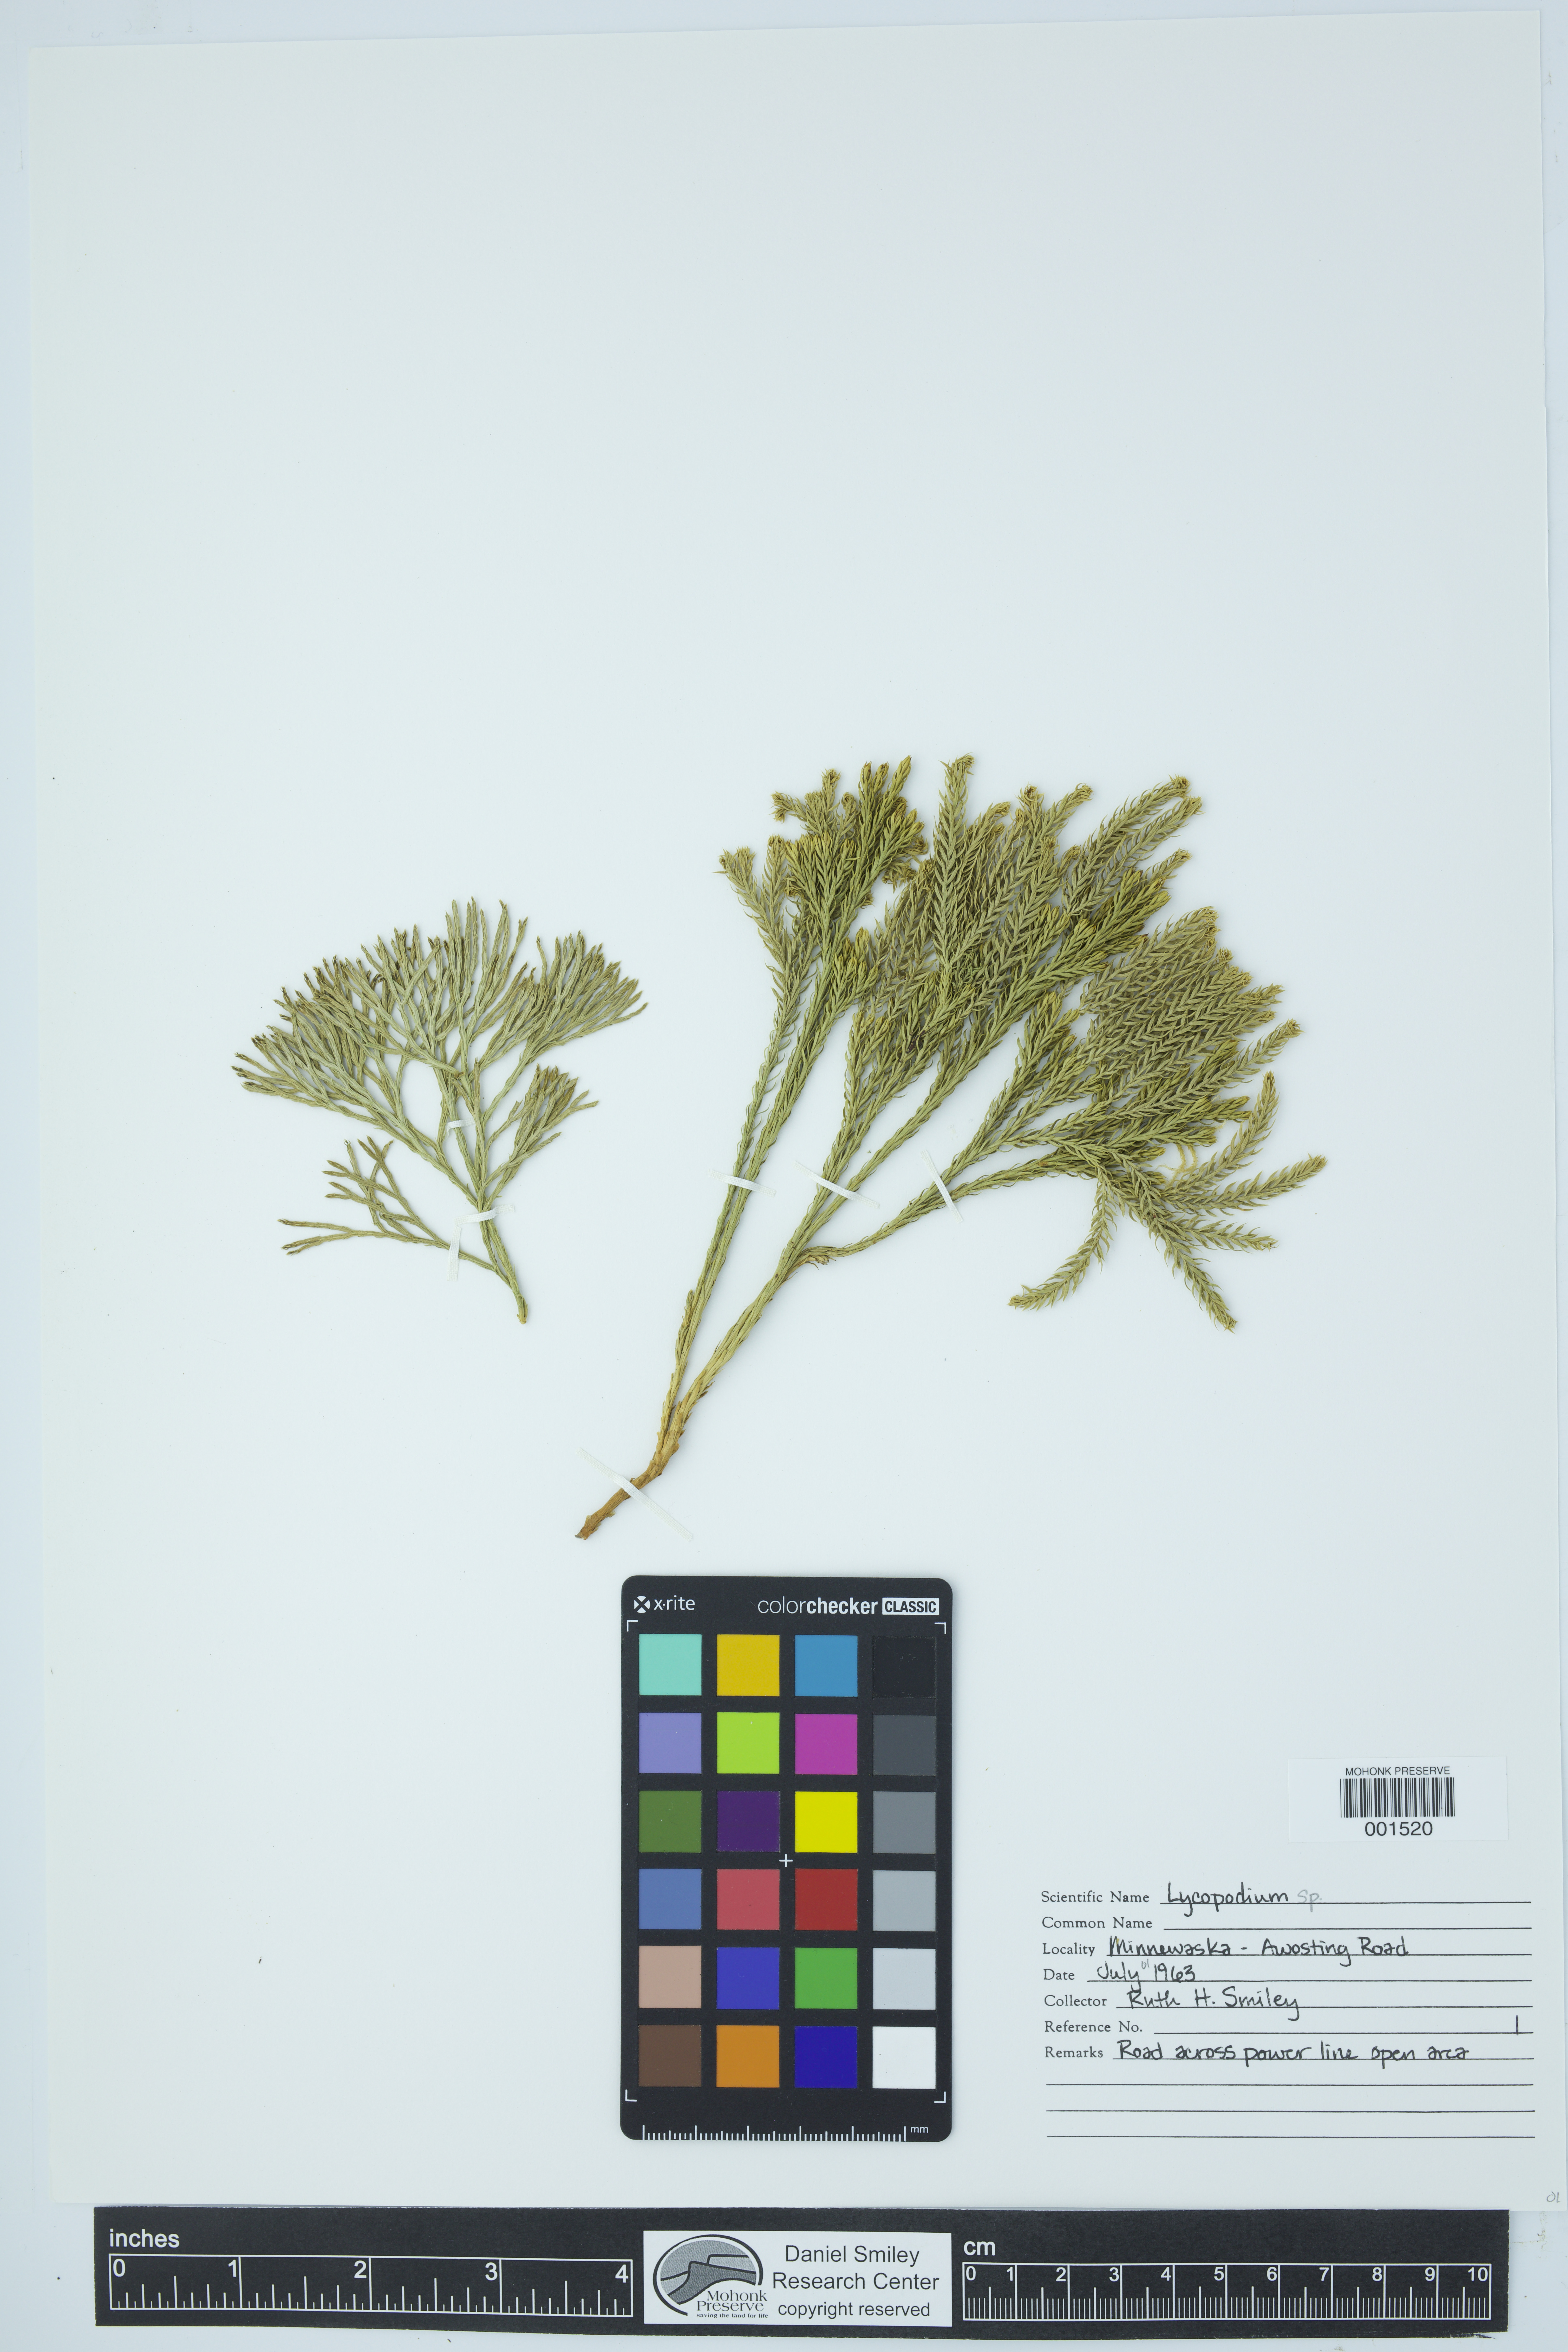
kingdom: Plantae
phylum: Tracheophyta
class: Lycopodiopsida
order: Lycopodiales
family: Lycopodiaceae
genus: Lycopodium
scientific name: Lycopodium
